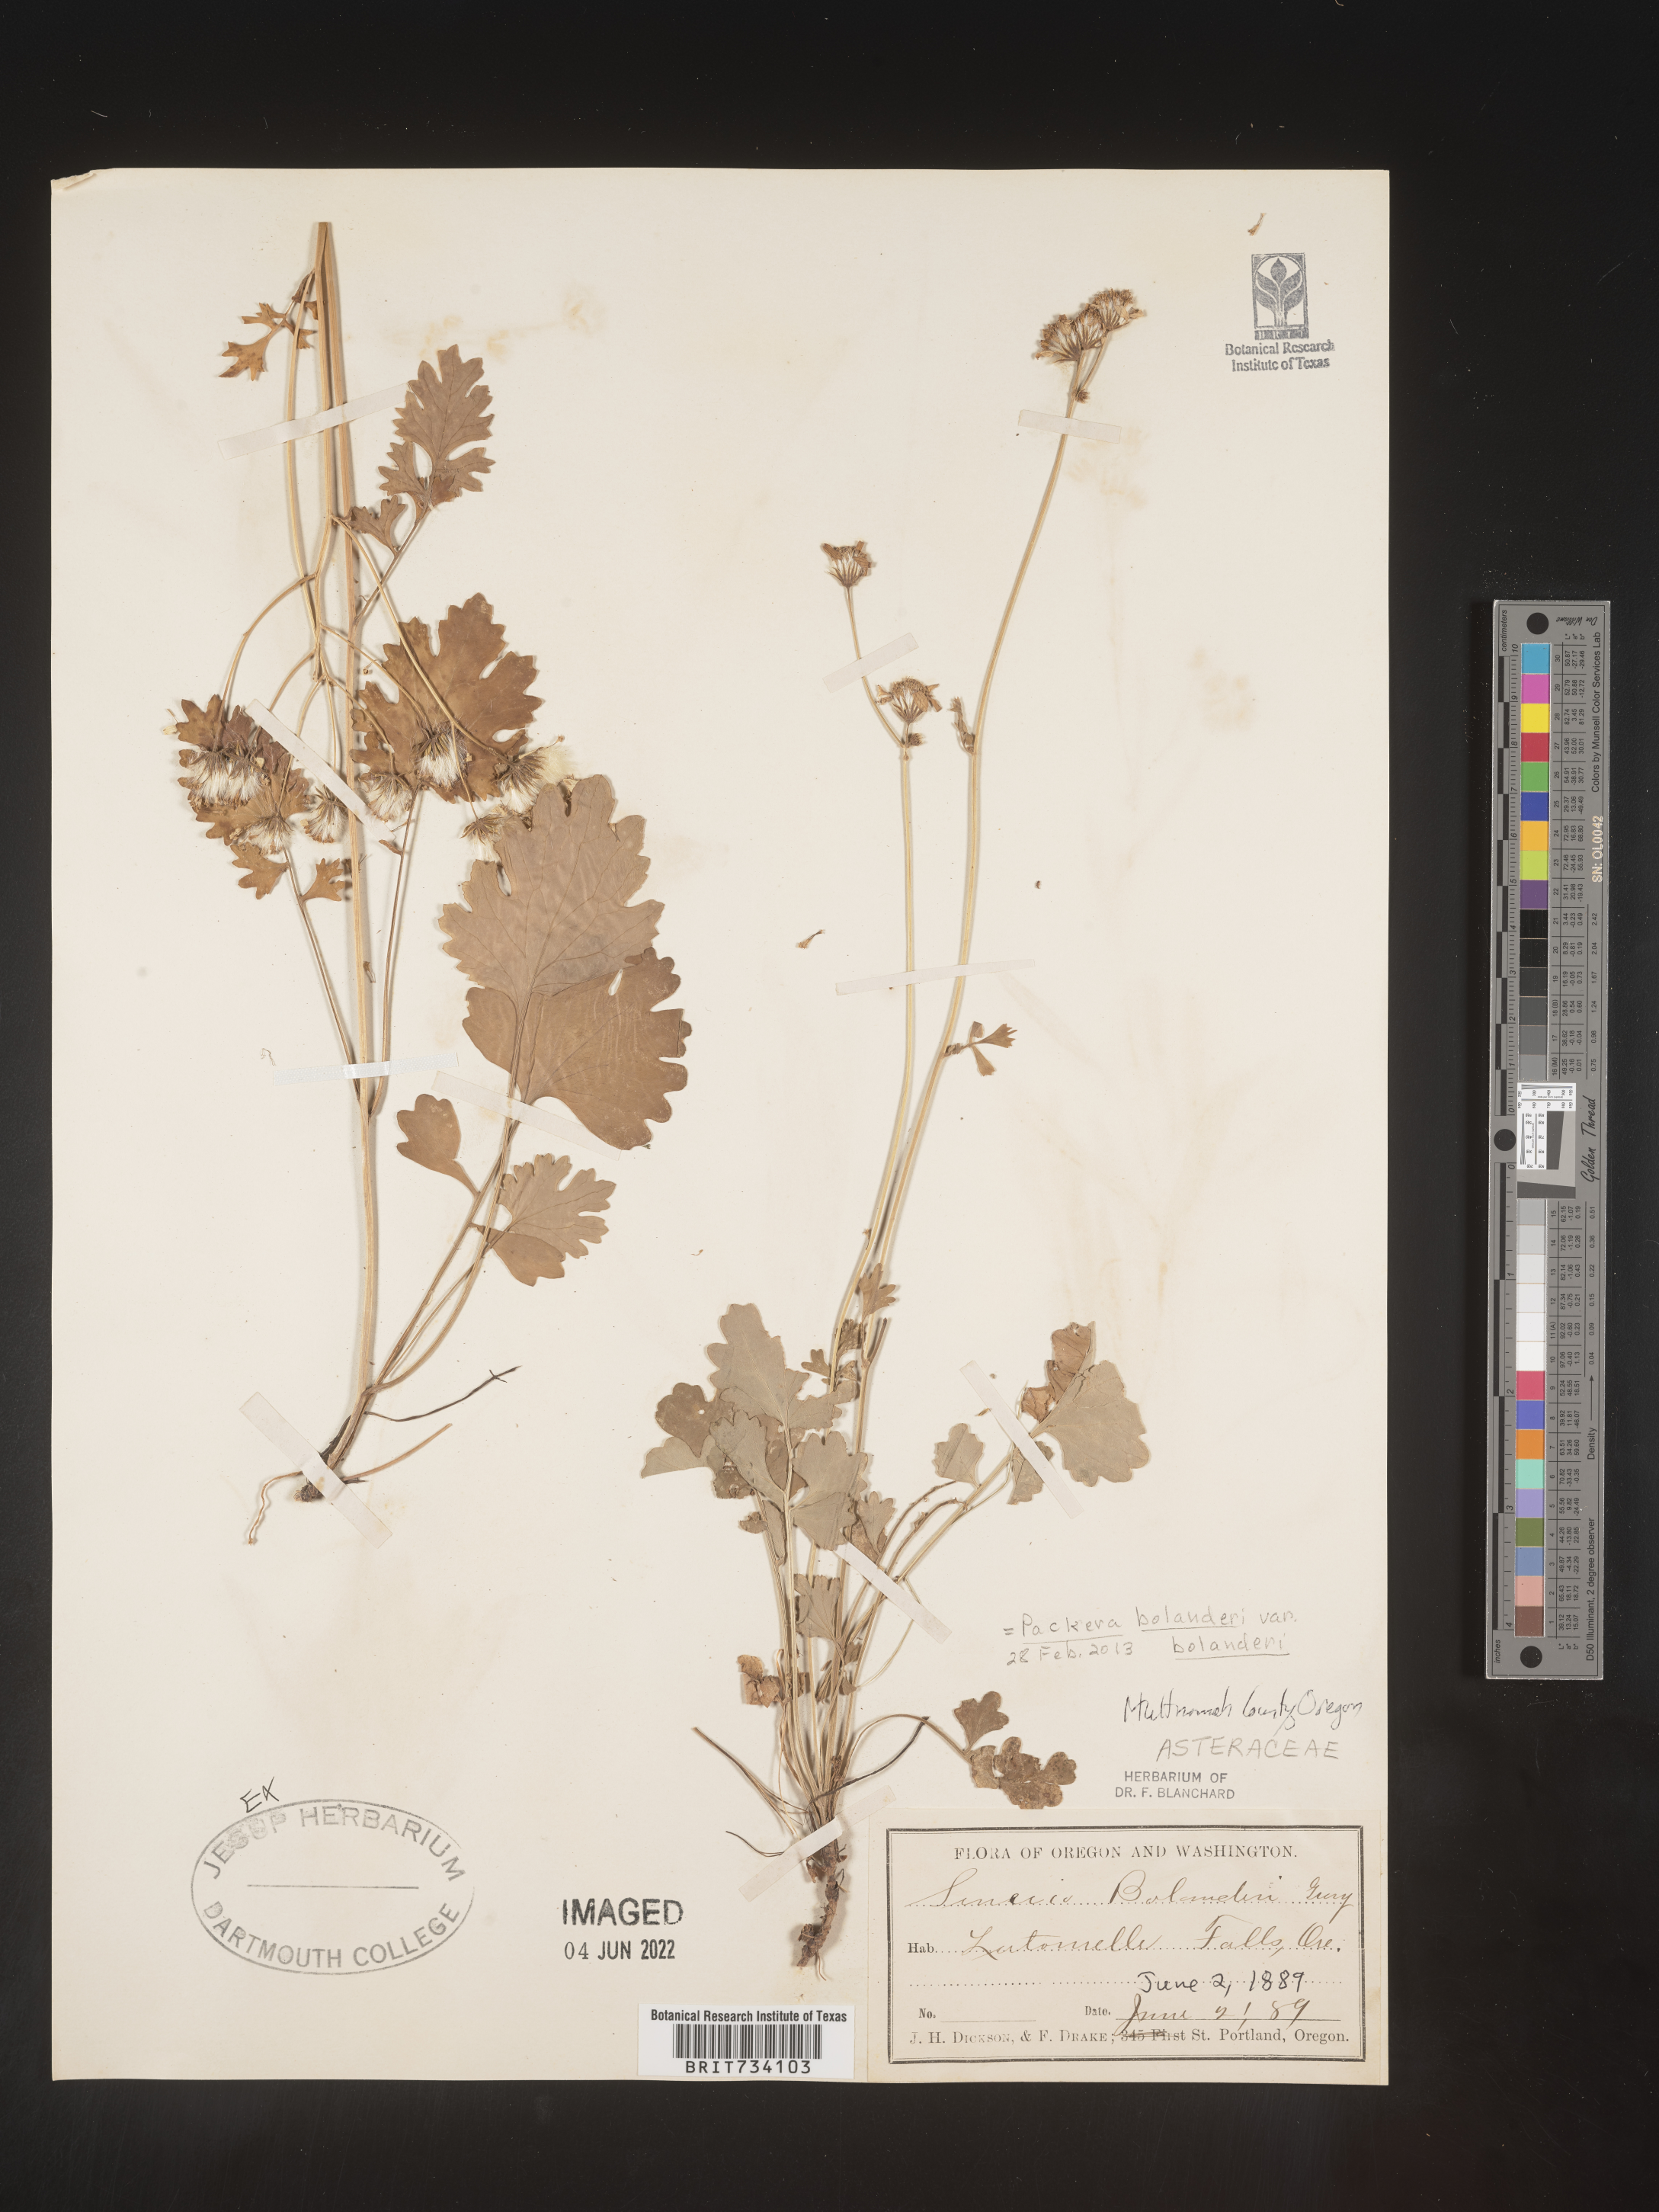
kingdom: Plantae
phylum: Tracheophyta
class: Magnoliopsida
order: Asterales
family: Asteraceae
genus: Packera
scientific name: Packera aurea
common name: Golden groundsel
